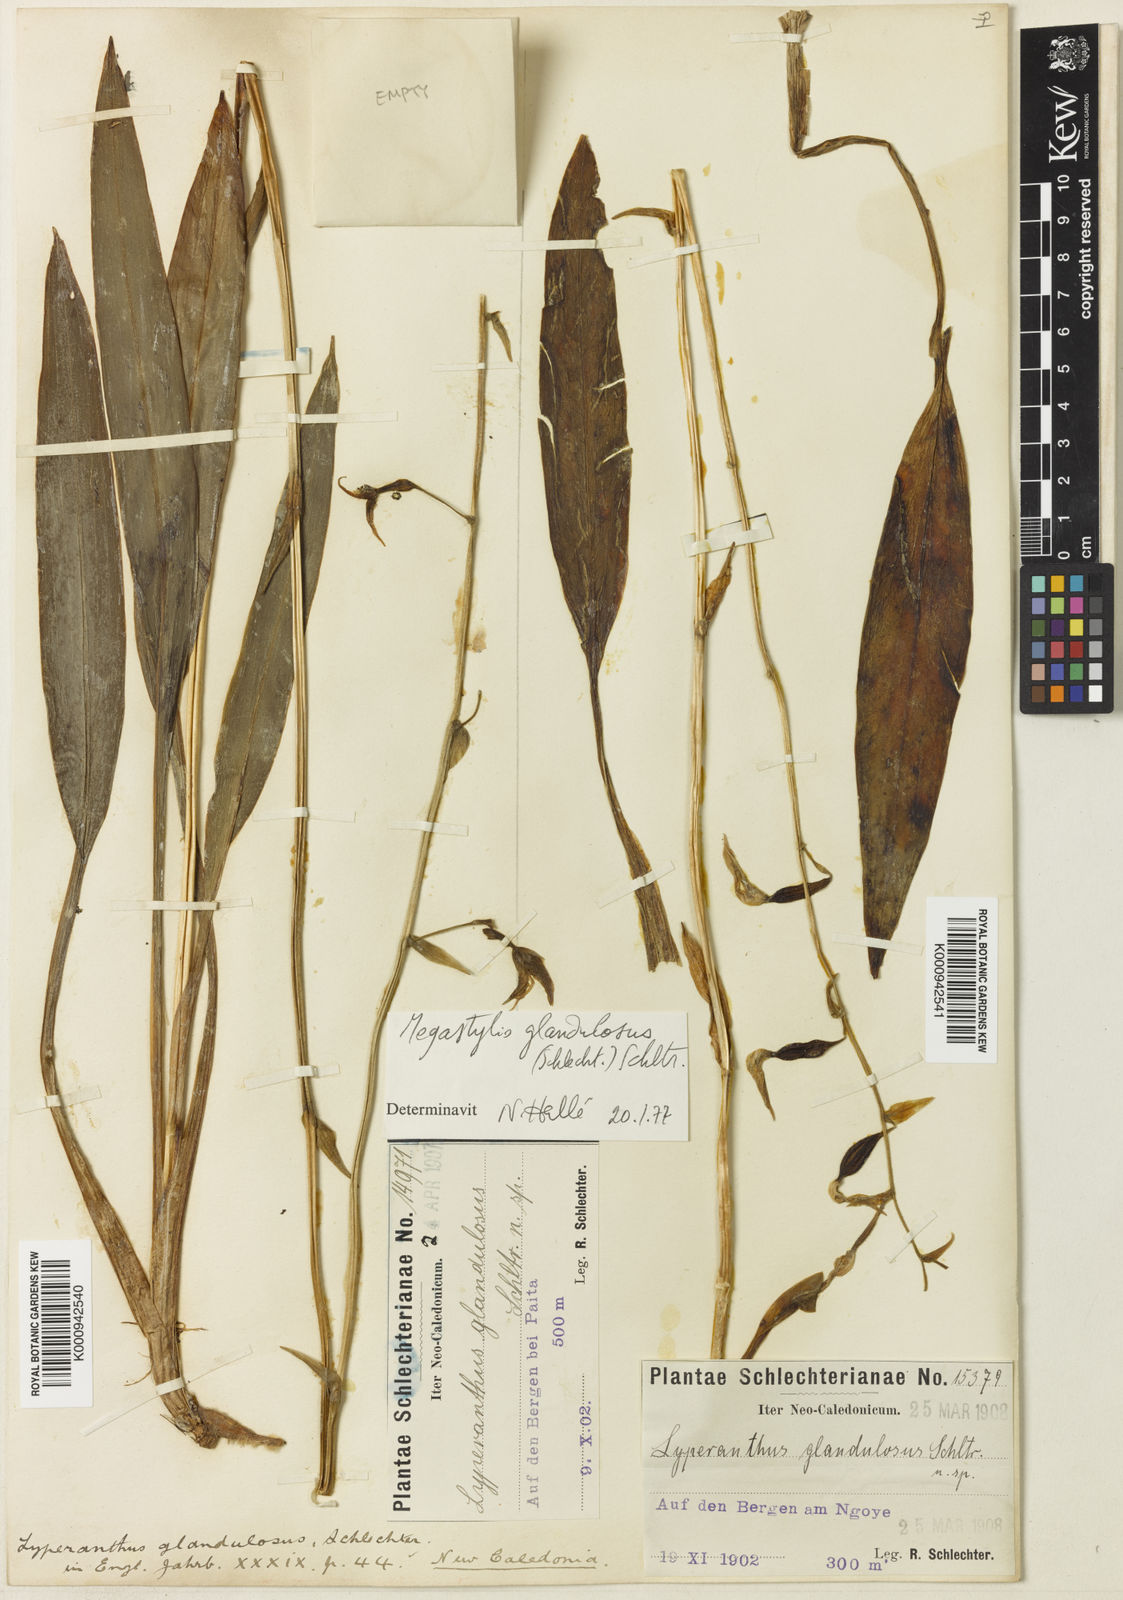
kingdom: Plantae
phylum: Tracheophyta
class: Liliopsida
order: Asparagales
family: Orchidaceae
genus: Achlydosa
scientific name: Achlydosa glandulosa
